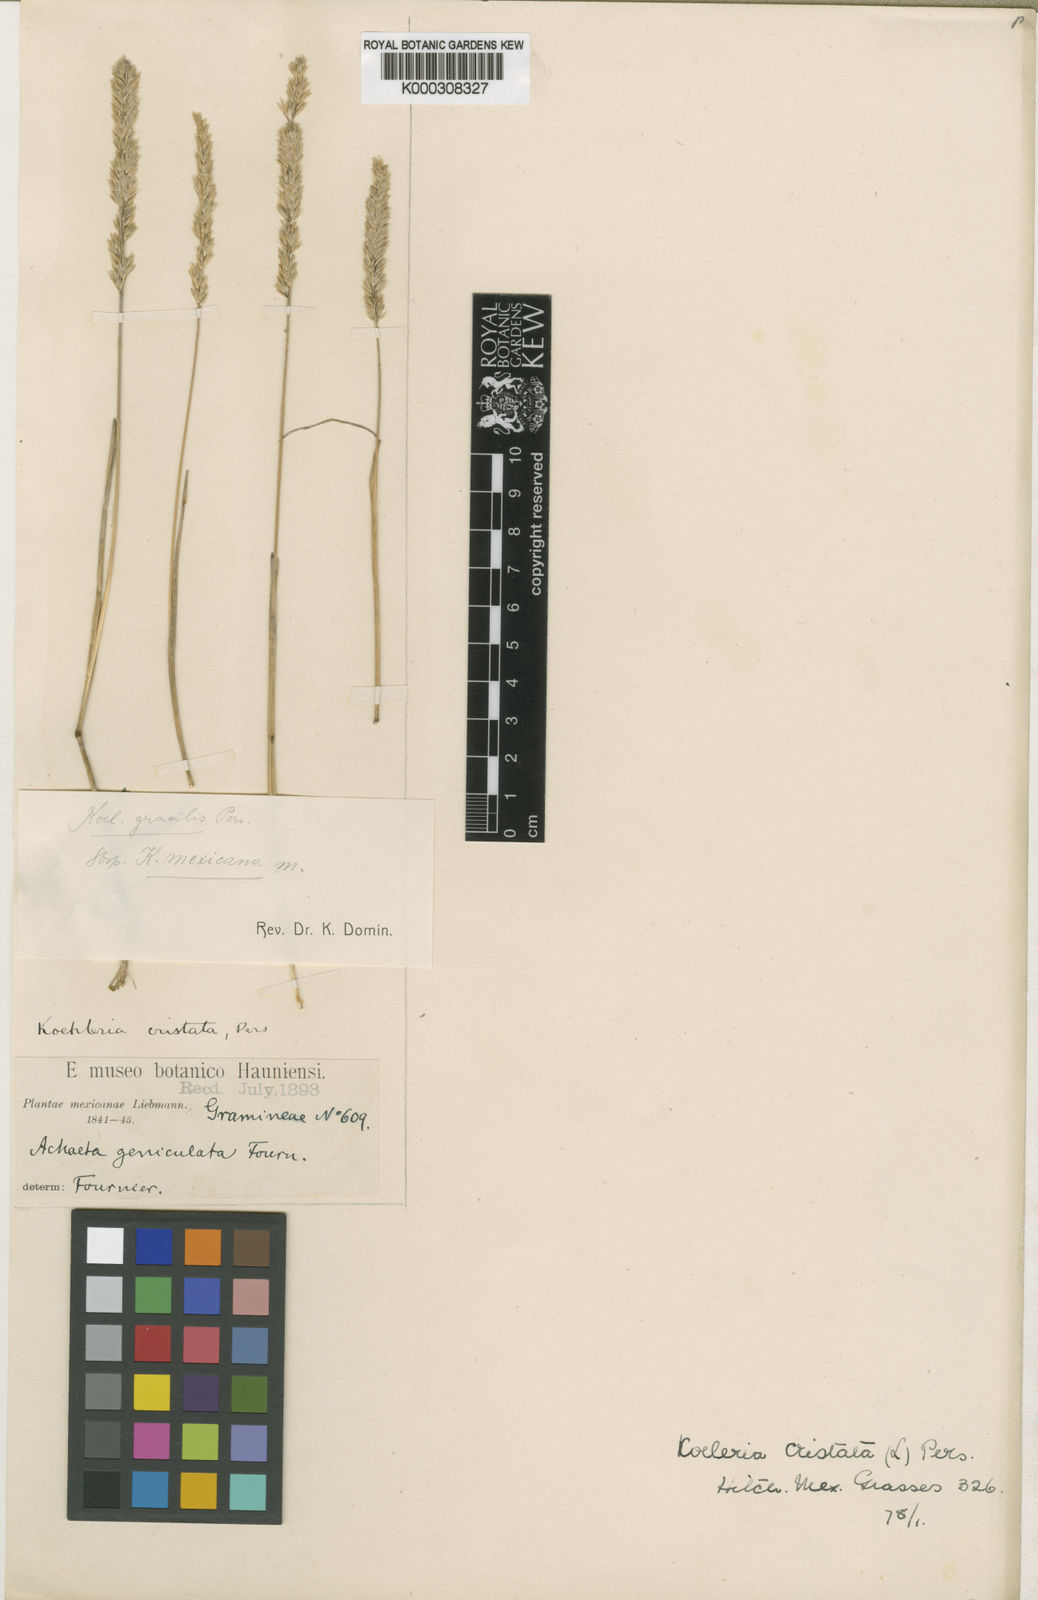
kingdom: Plantae
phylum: Tracheophyta
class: Liliopsida
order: Poales
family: Poaceae
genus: Koeleria
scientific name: Koeleria macrantha
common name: Crested hair-grass
